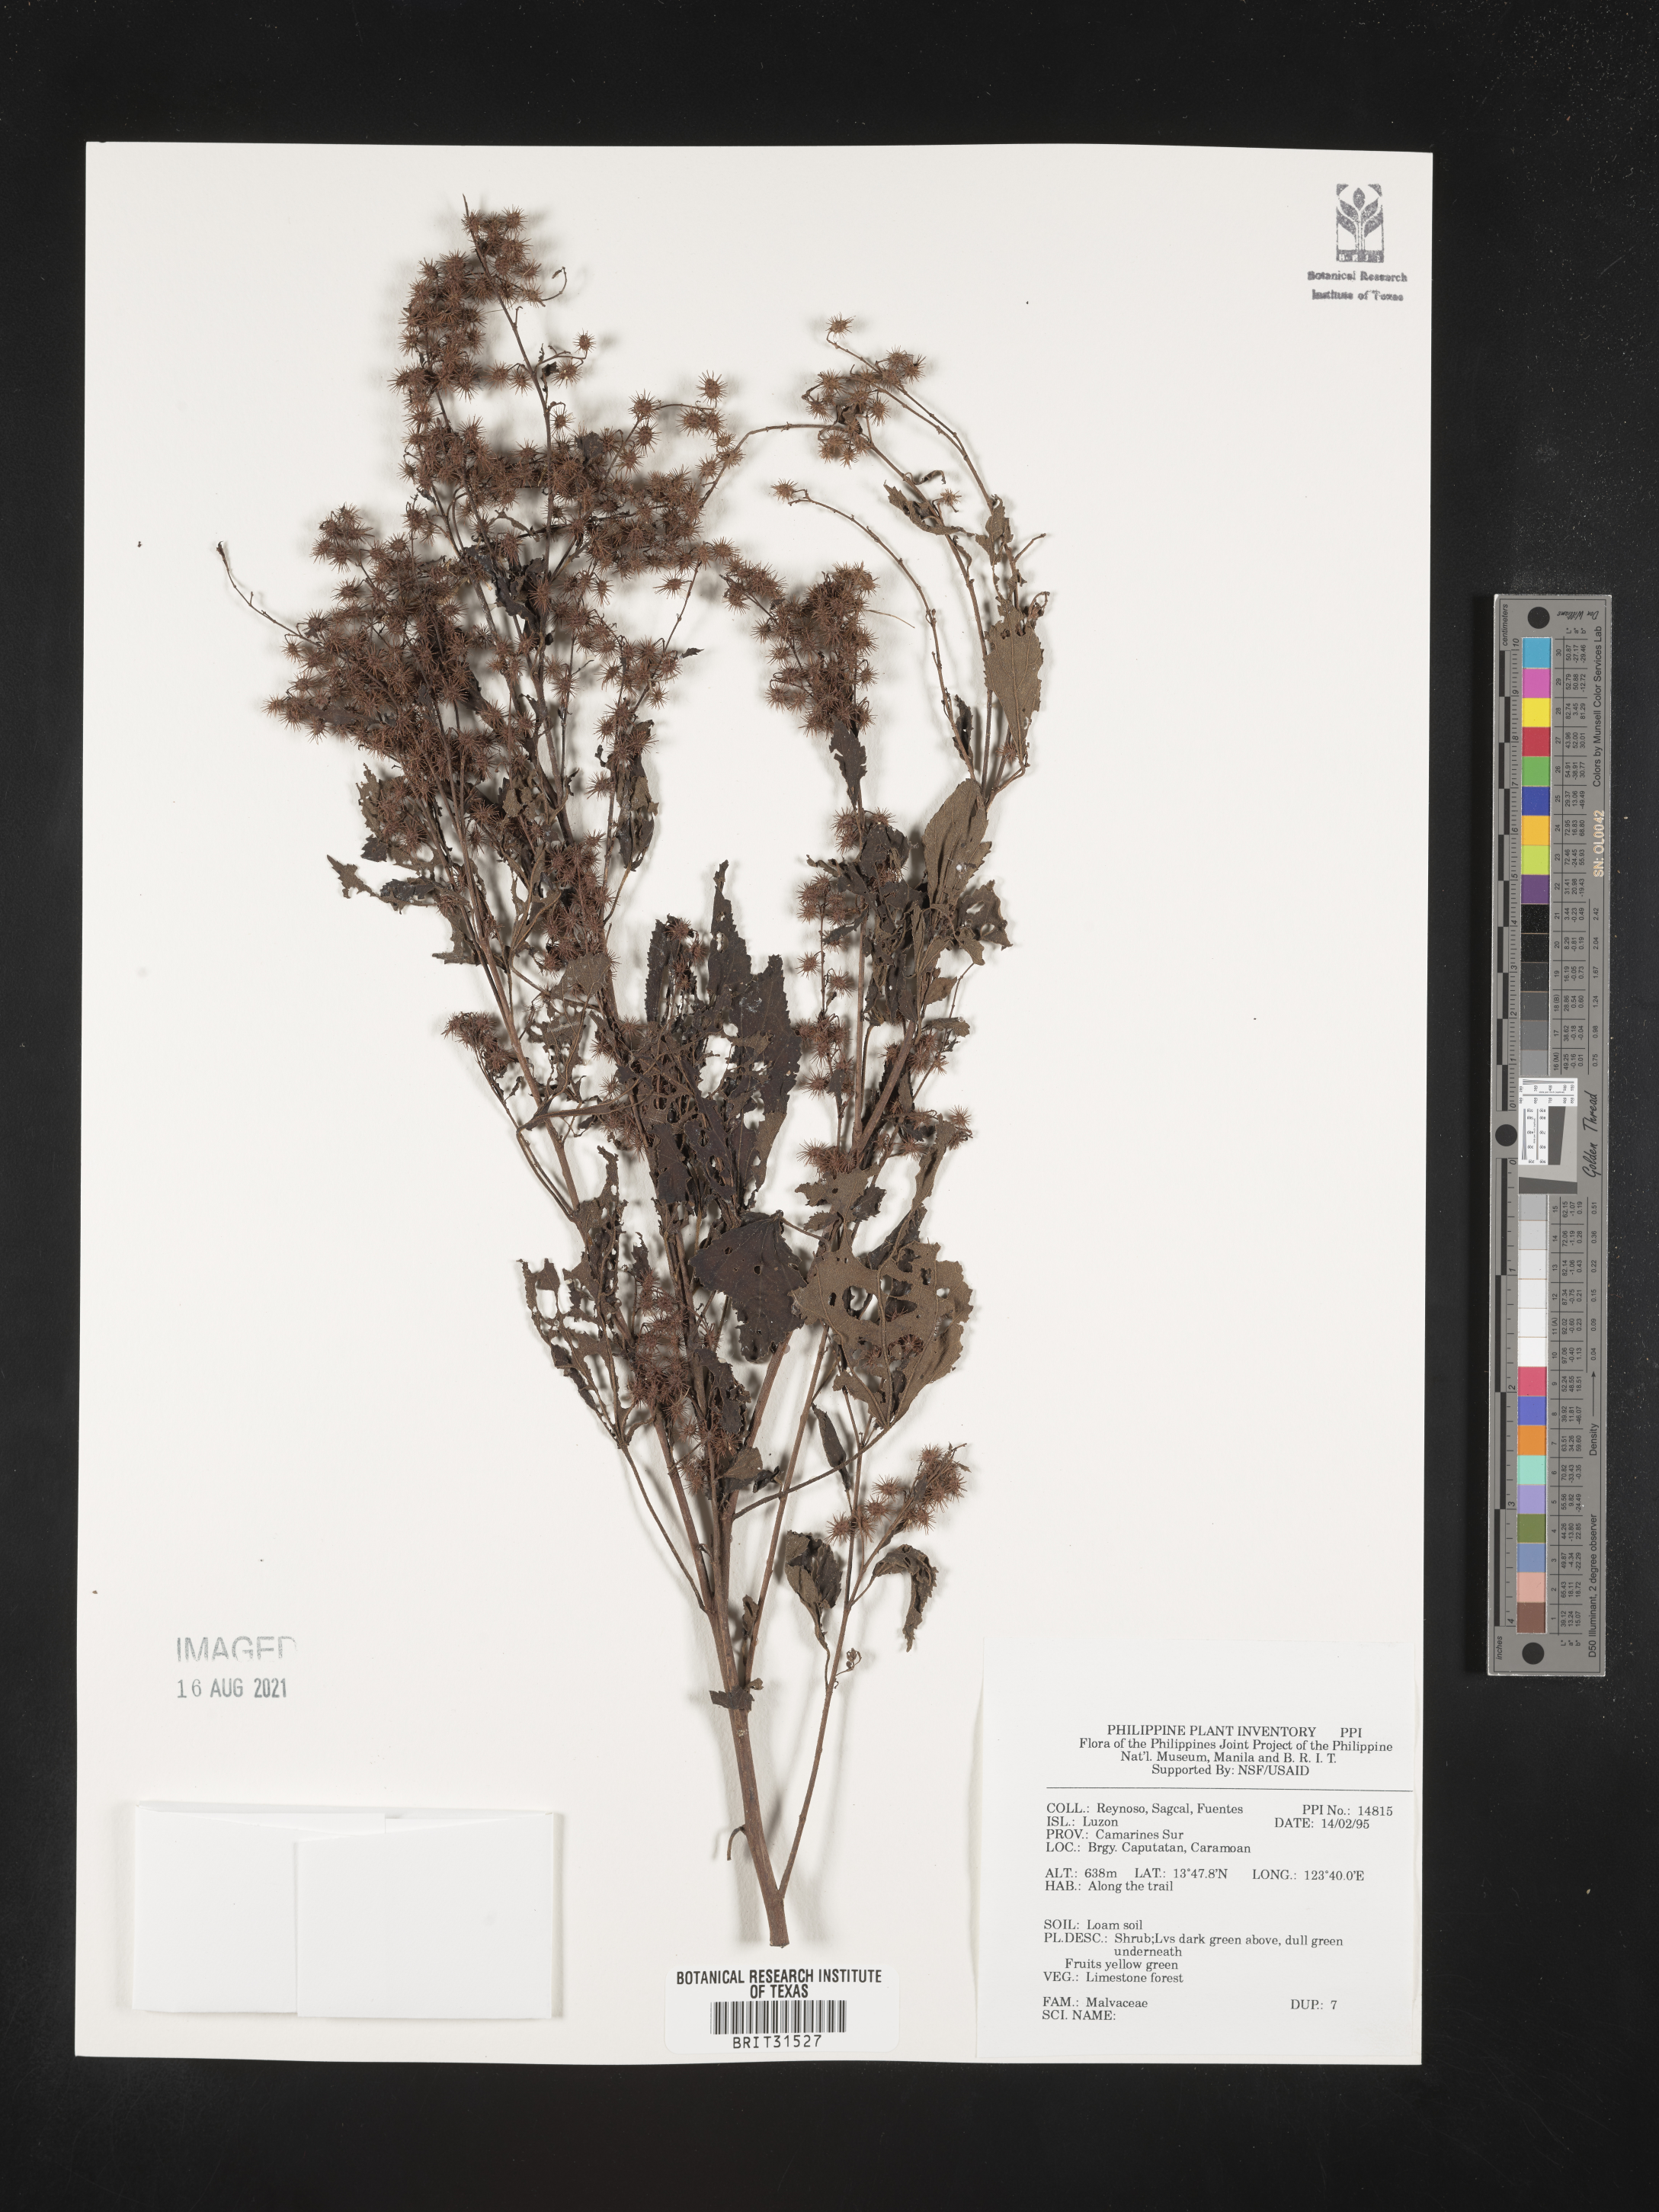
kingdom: Plantae
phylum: Tracheophyta
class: Magnoliopsida
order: Malvales
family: Malvaceae
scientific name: Malvaceae
